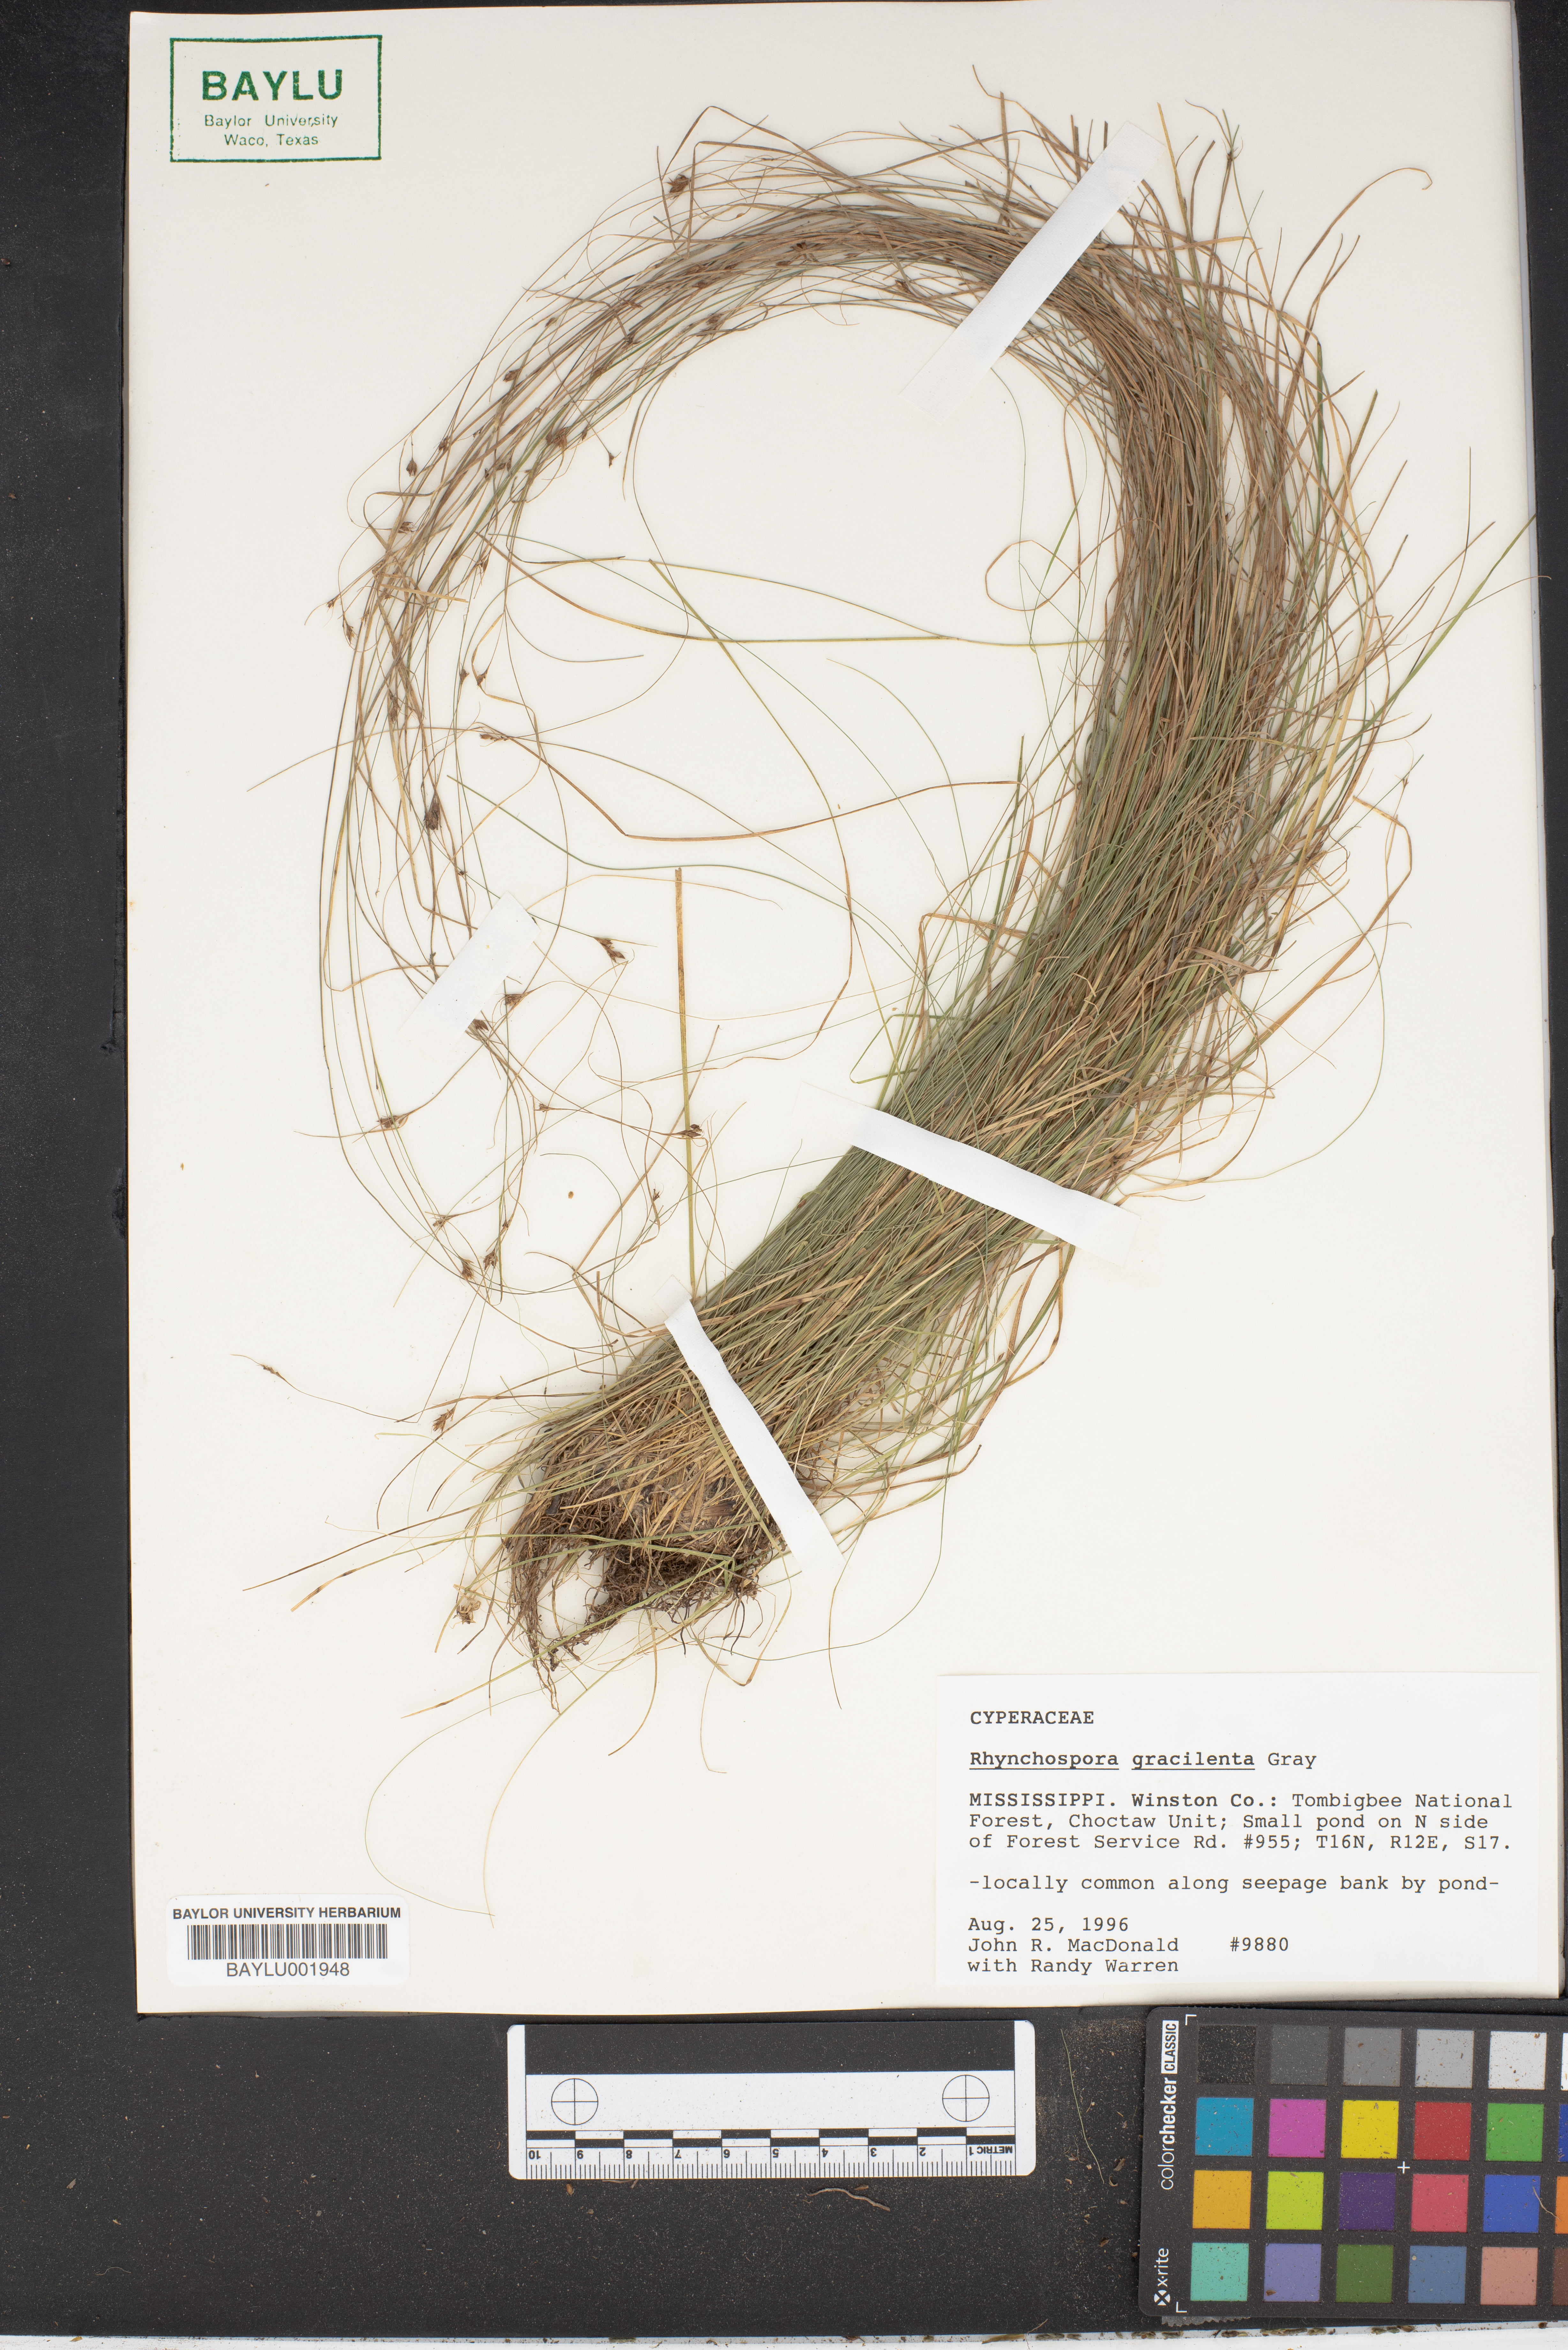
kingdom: Plantae
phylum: Tracheophyta
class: Liliopsida
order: Poales
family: Cyperaceae
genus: Rhynchospora
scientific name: Rhynchospora gracilenta
